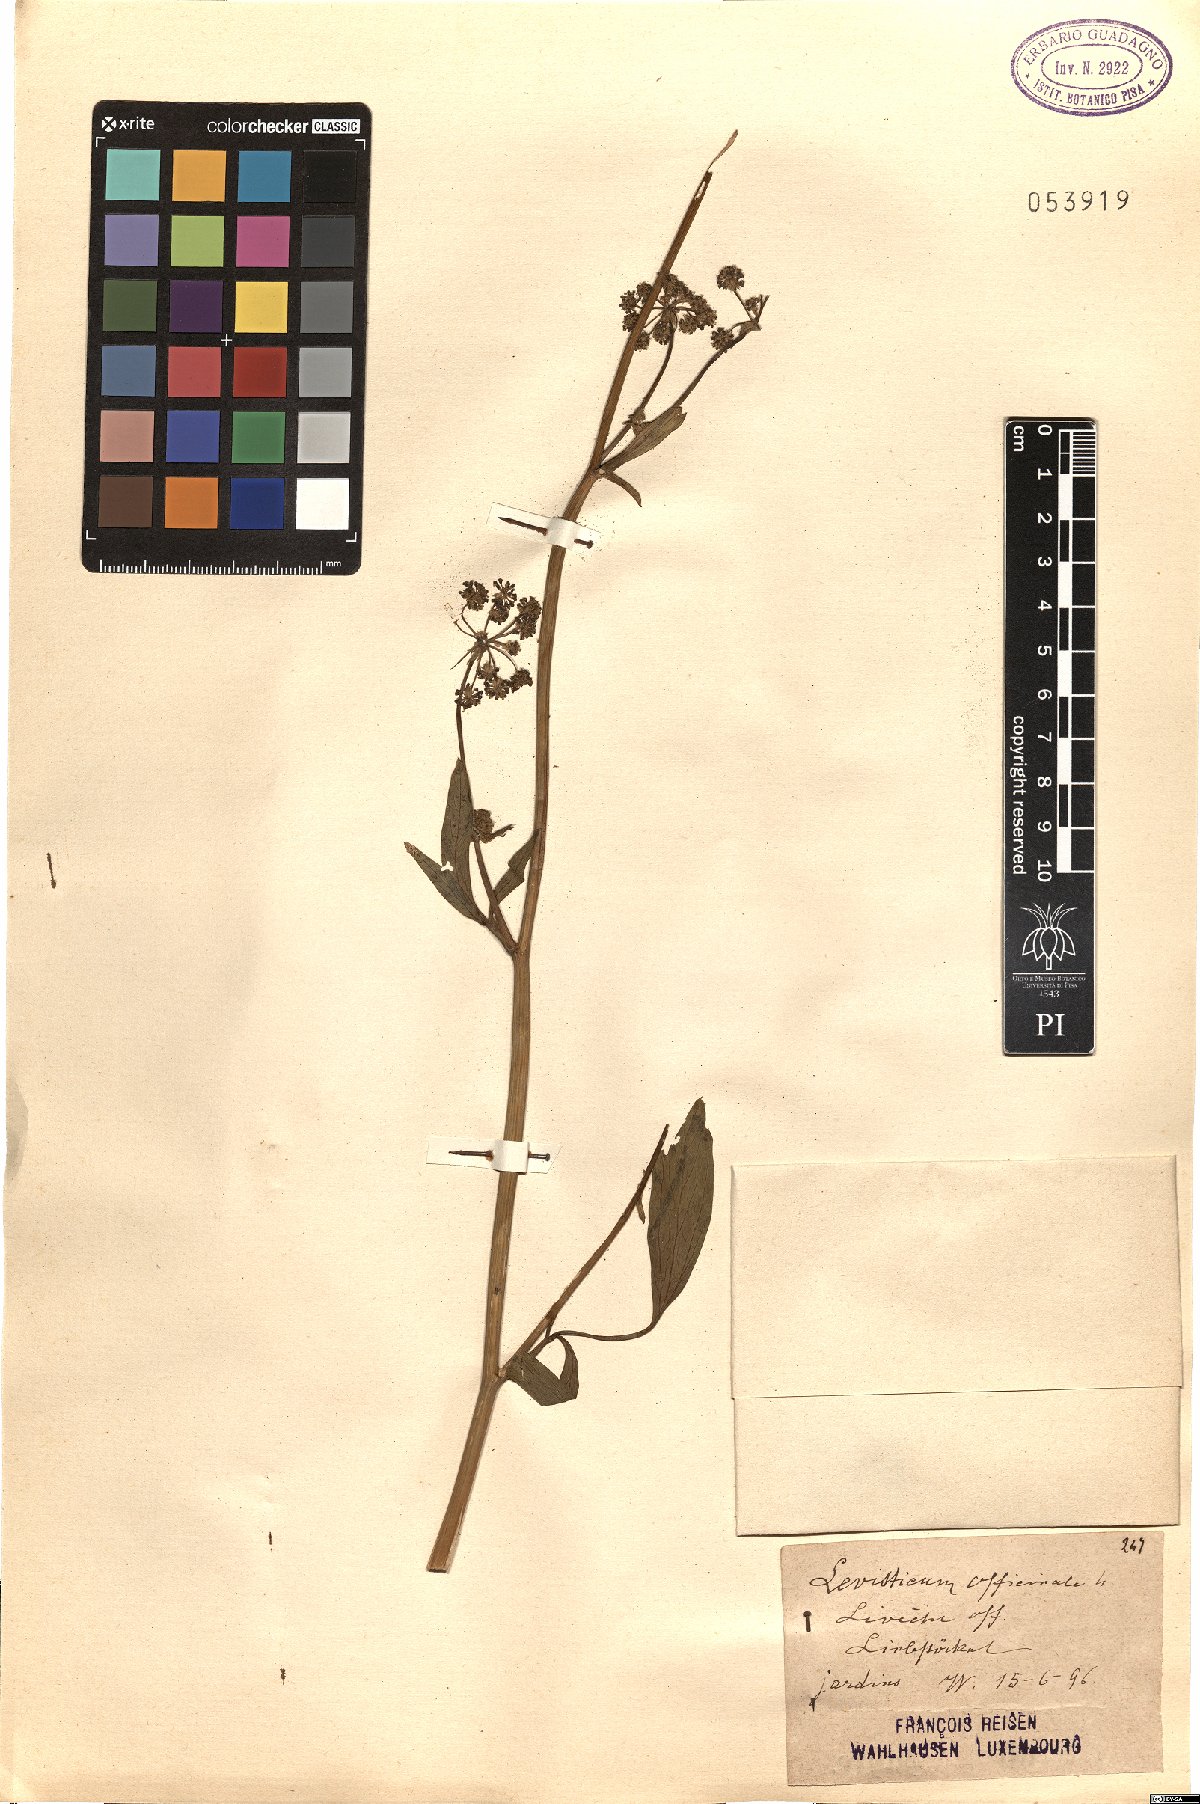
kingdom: Plantae
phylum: Tracheophyta
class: Magnoliopsida
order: Apiales
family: Apiaceae
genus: Levisticum
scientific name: Levisticum officinale
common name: Lovage
